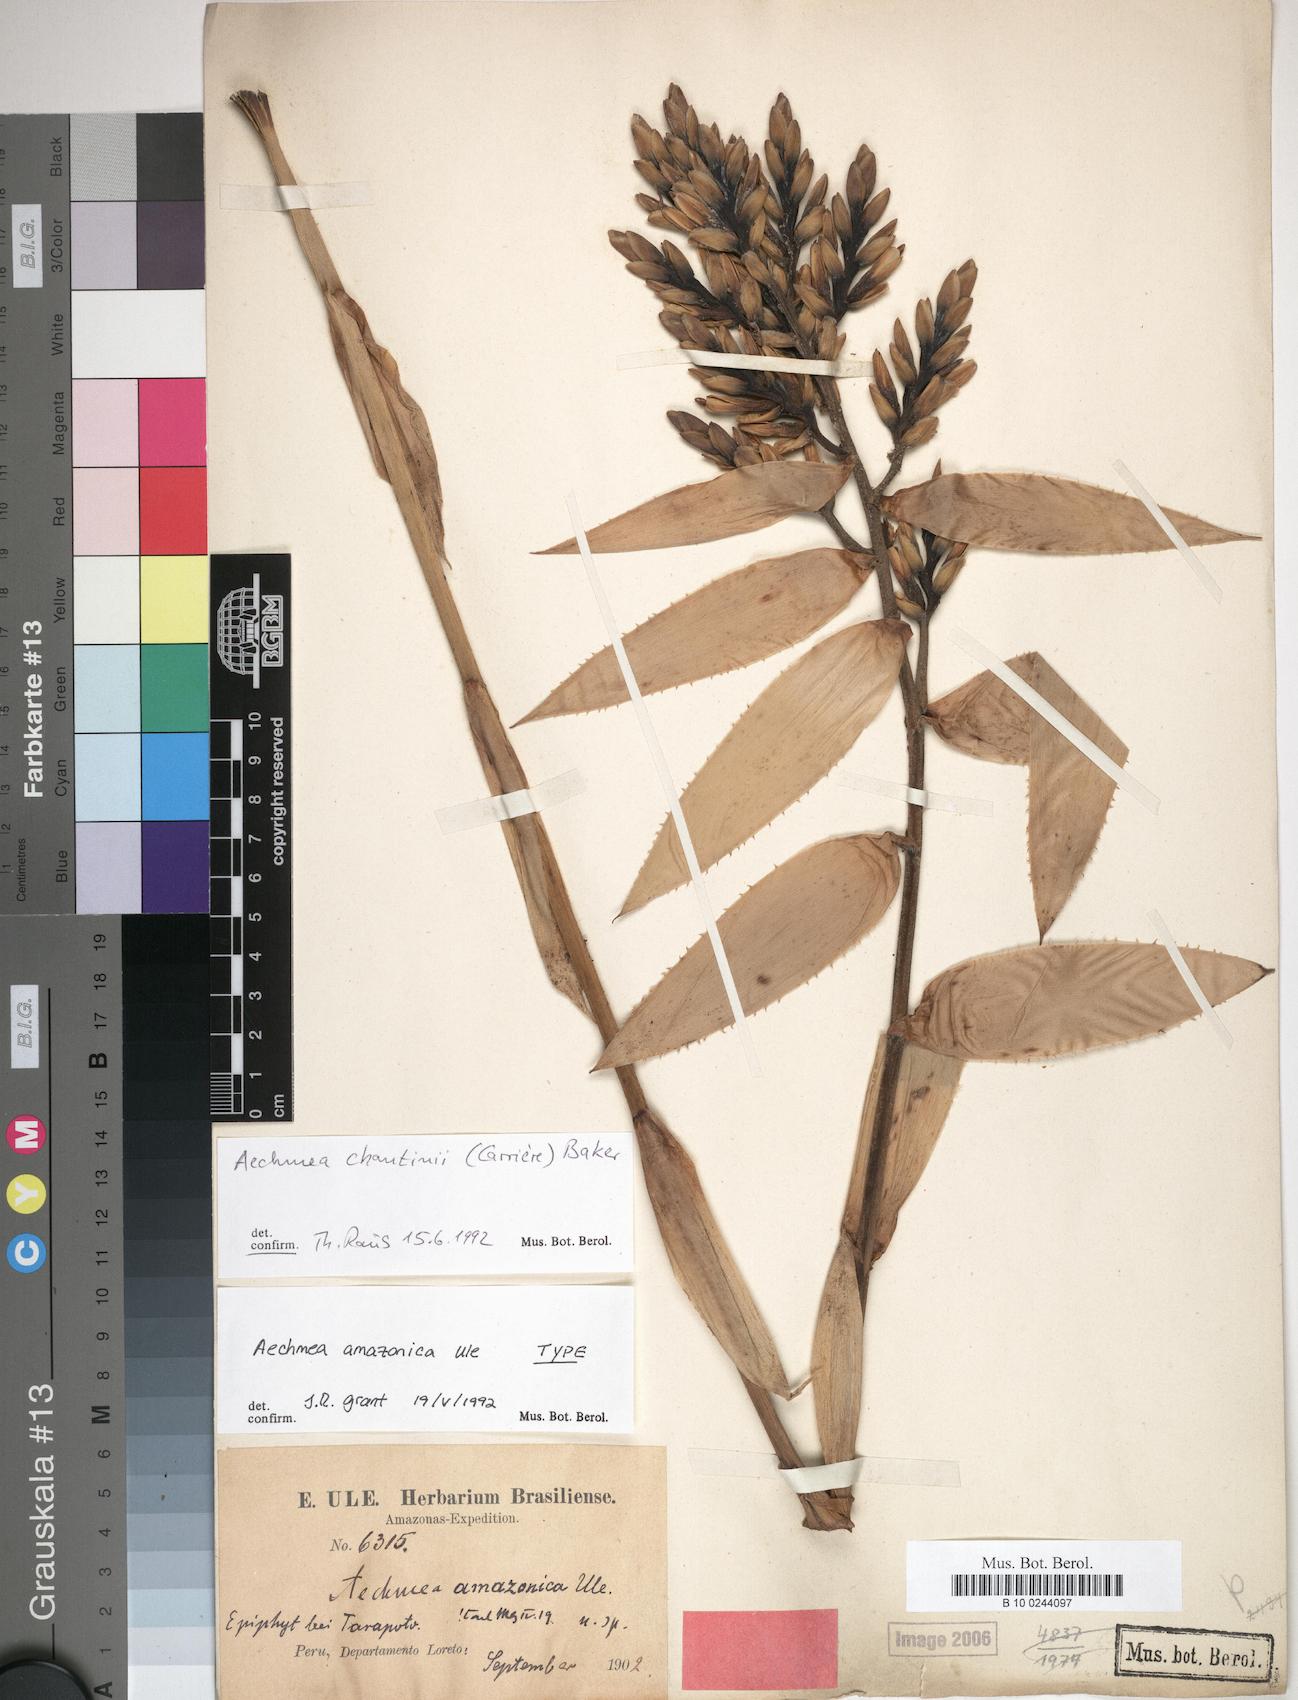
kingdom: Plantae
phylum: Tracheophyta
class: Liliopsida
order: Poales
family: Bromeliaceae
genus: Aechmea
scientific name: Aechmea chantinii
